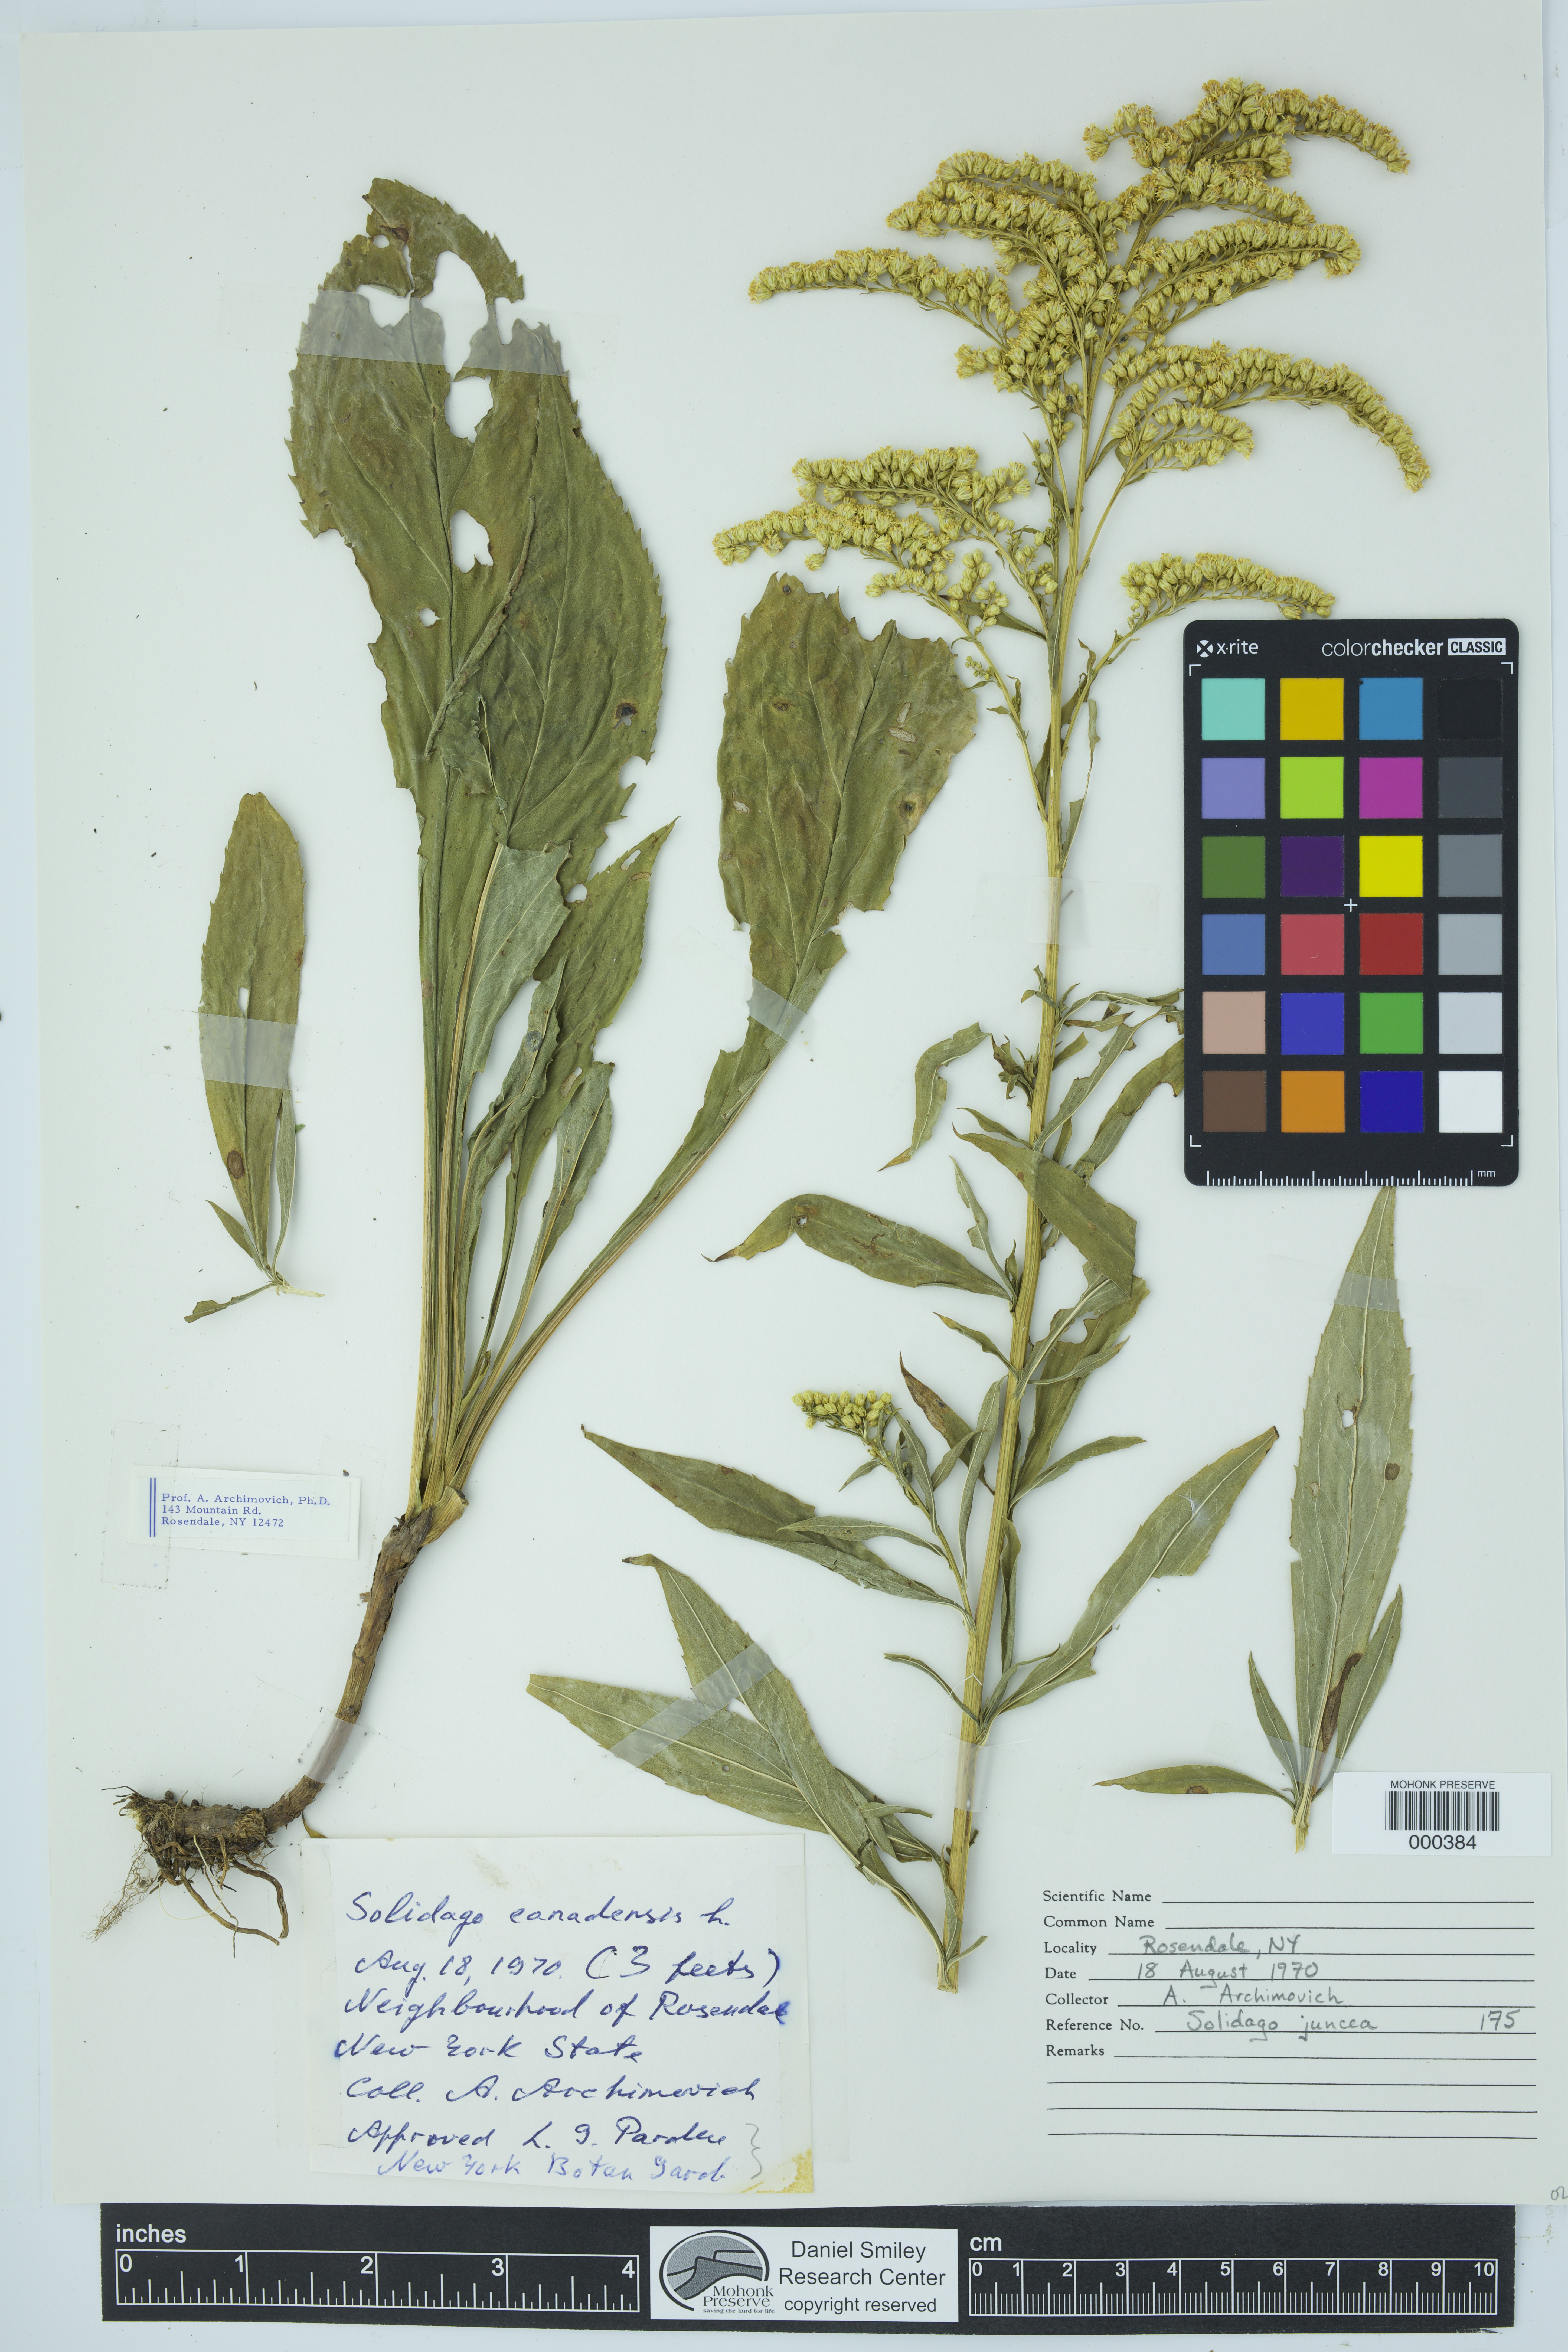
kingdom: Plantae
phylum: Tracheophyta
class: Magnoliopsida
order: Asterales
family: Asteraceae
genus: Solidago
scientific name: Solidago juncea
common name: Early goldenrod
